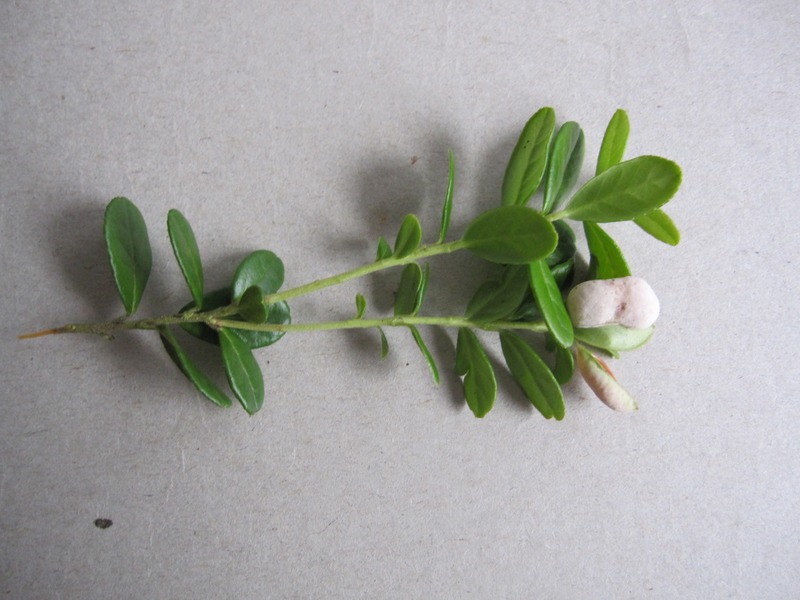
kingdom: Fungi
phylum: Basidiomycota
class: Exobasidiomycetes
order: Exobasidiales
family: Exobasidiaceae
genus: Exobasidium
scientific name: Exobasidium vaccinii
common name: Cowberry redleaf
